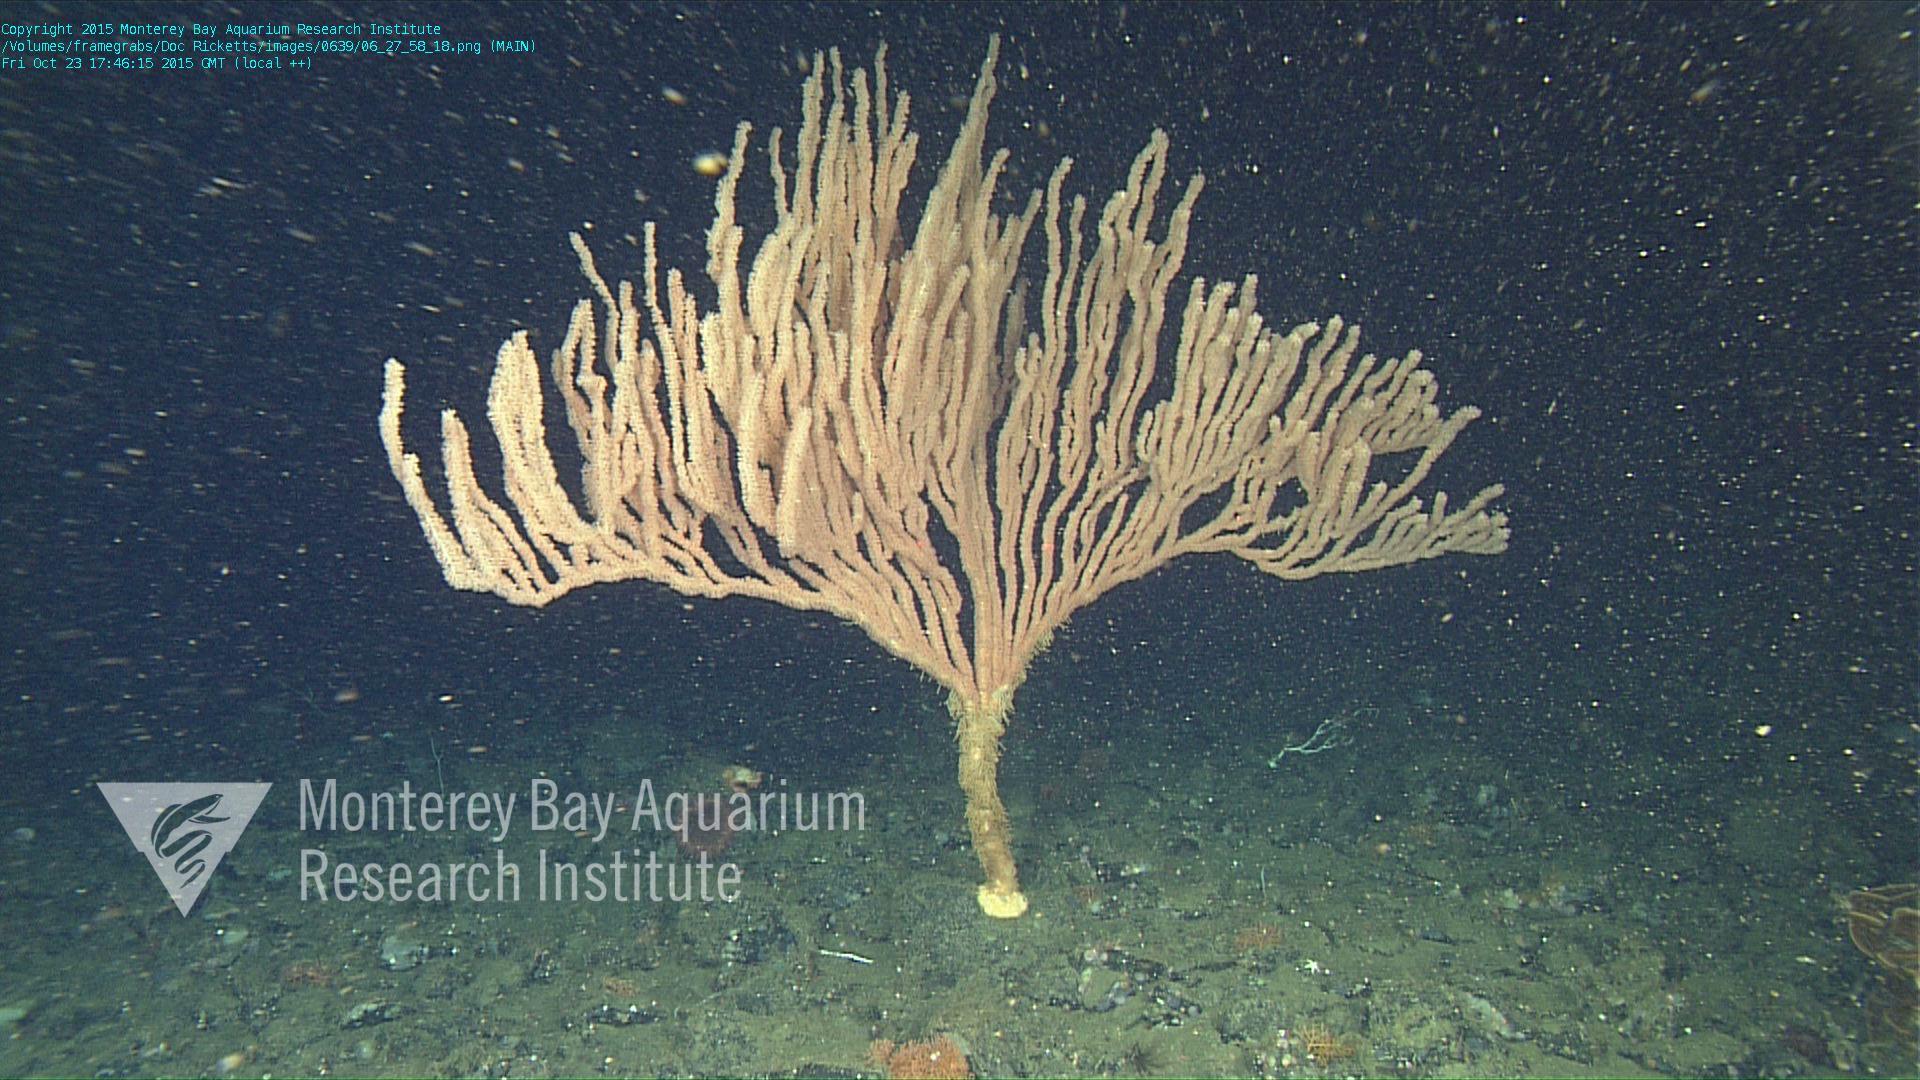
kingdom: Animalia
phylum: Cnidaria
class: Anthozoa
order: Scleralcyonacea
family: Keratoisididae
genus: Isidella
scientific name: Isidella tentaculum
